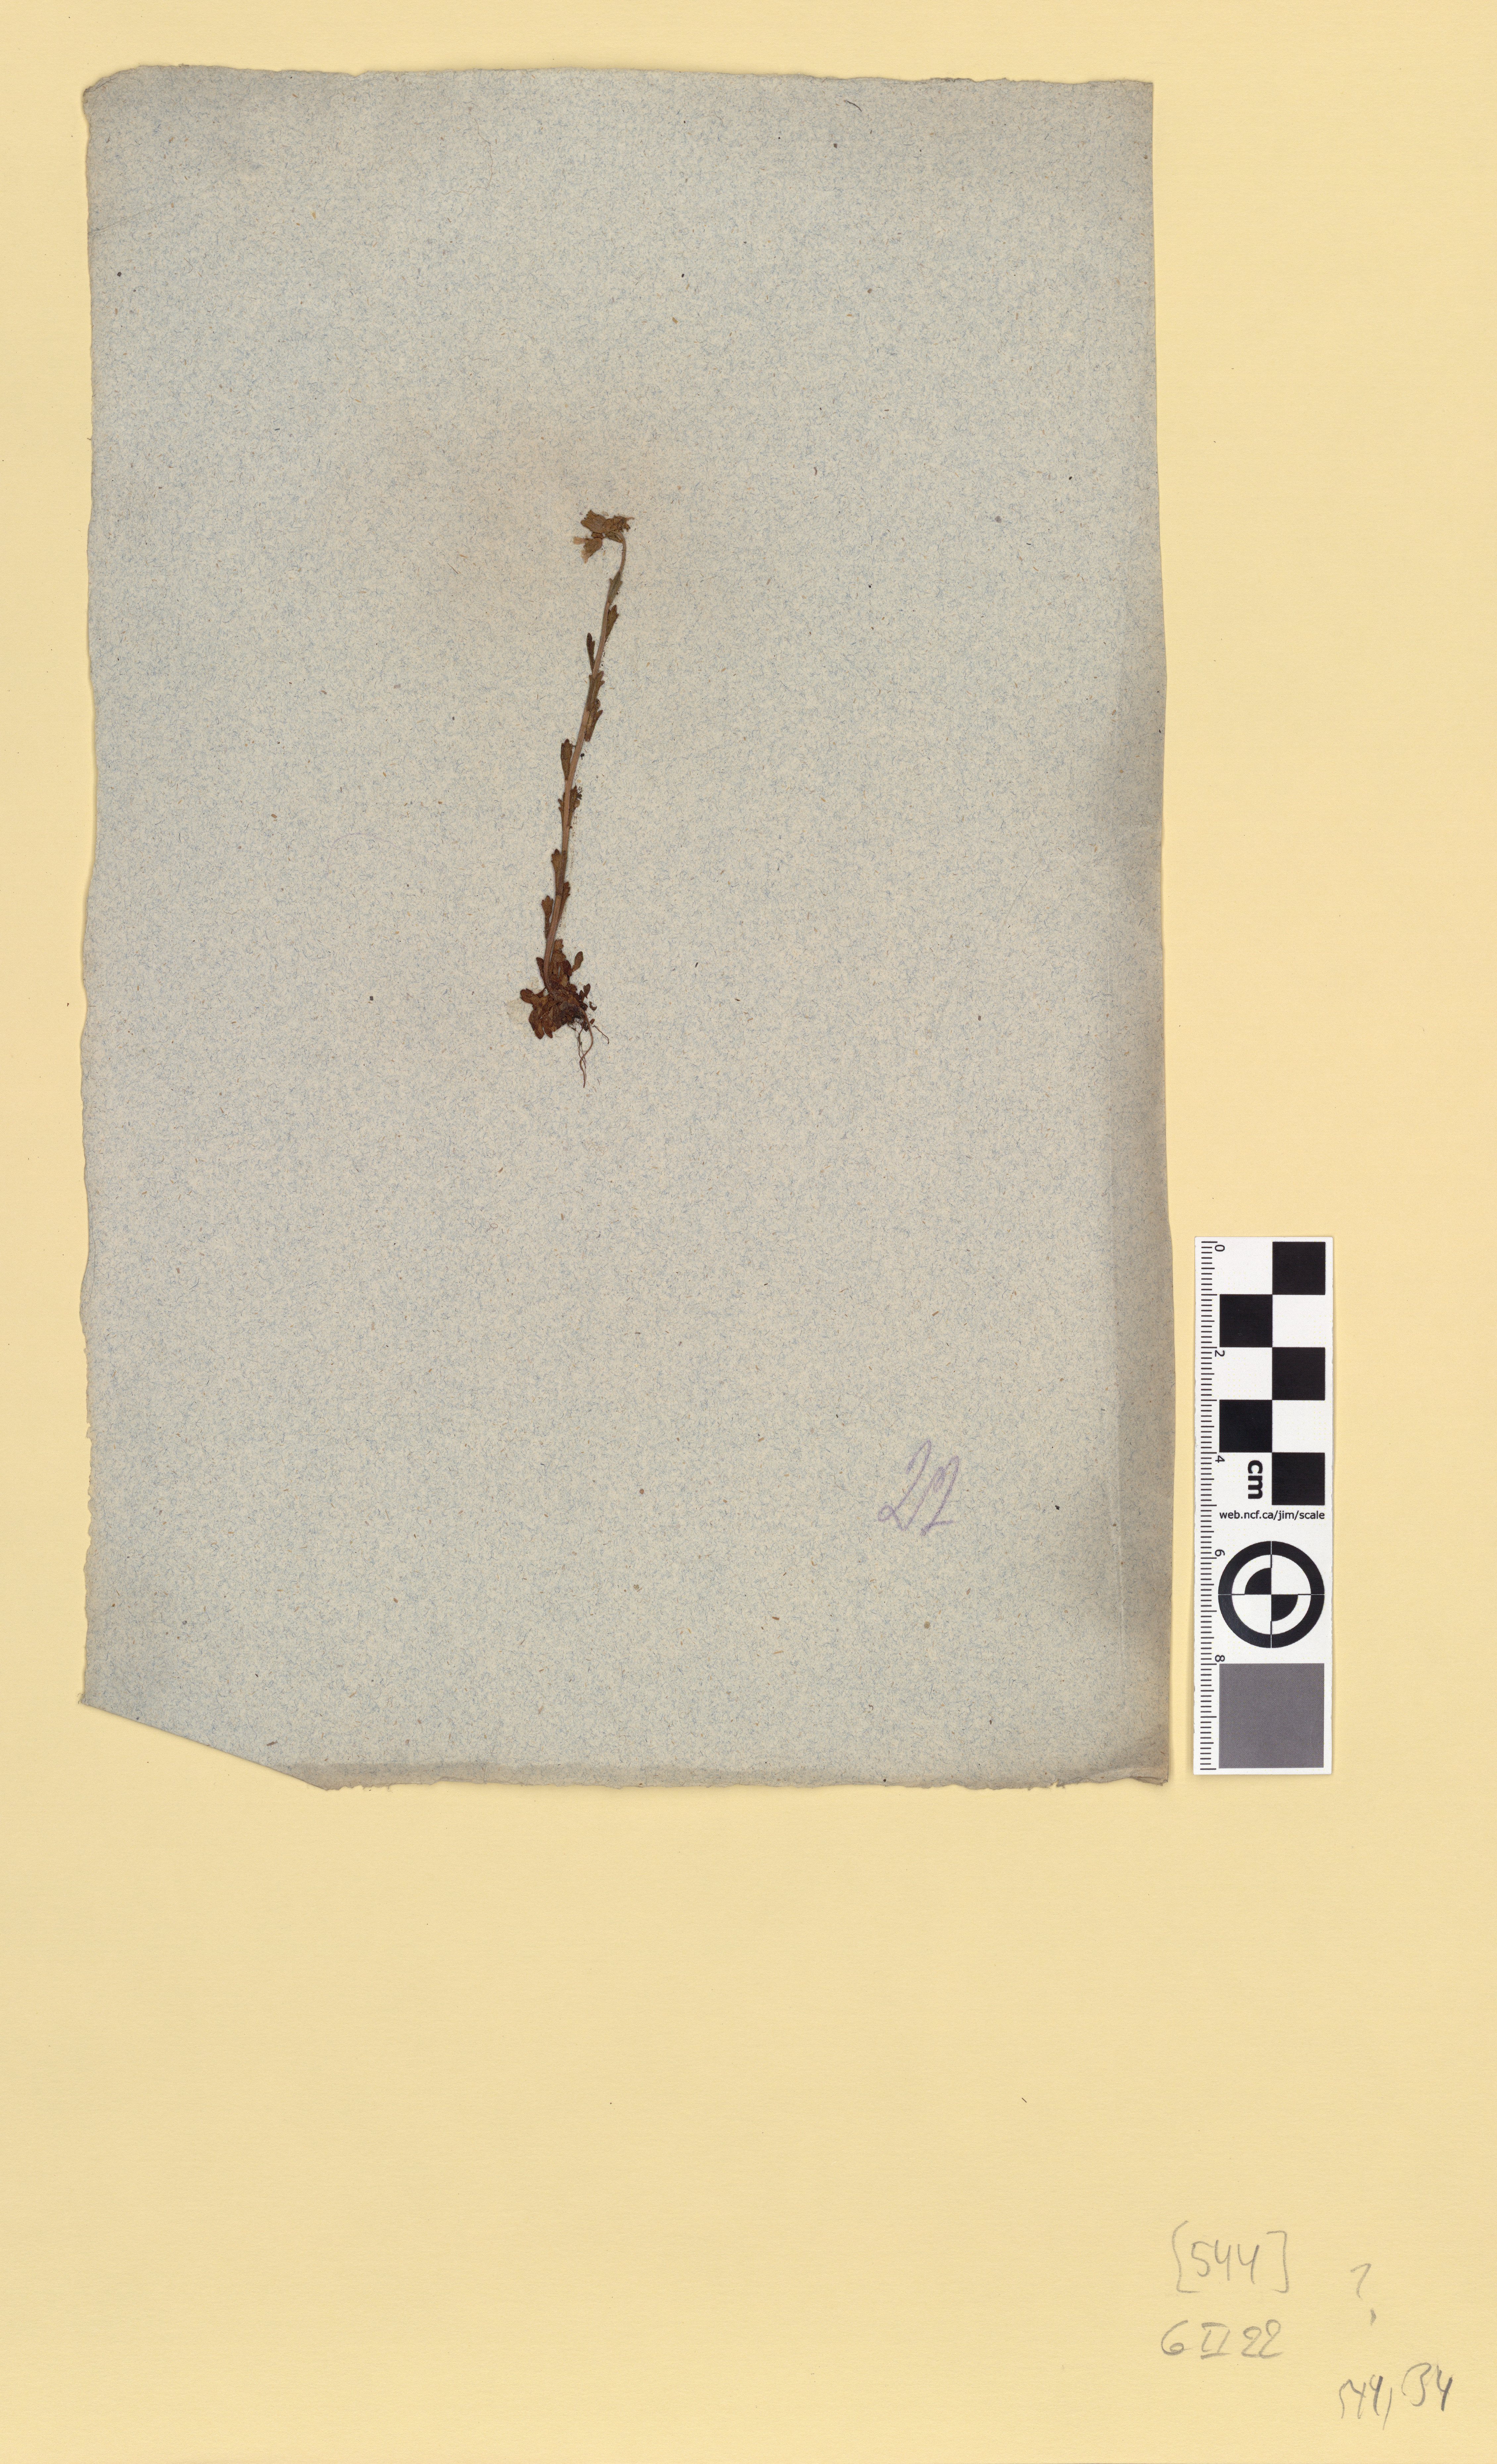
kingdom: Plantae
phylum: Tracheophyta
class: Magnoliopsida
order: Saxifragales
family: Saxifragaceae
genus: Saxifraga
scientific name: Saxifraga tridactylites
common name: Rue-leaved saxifrage
